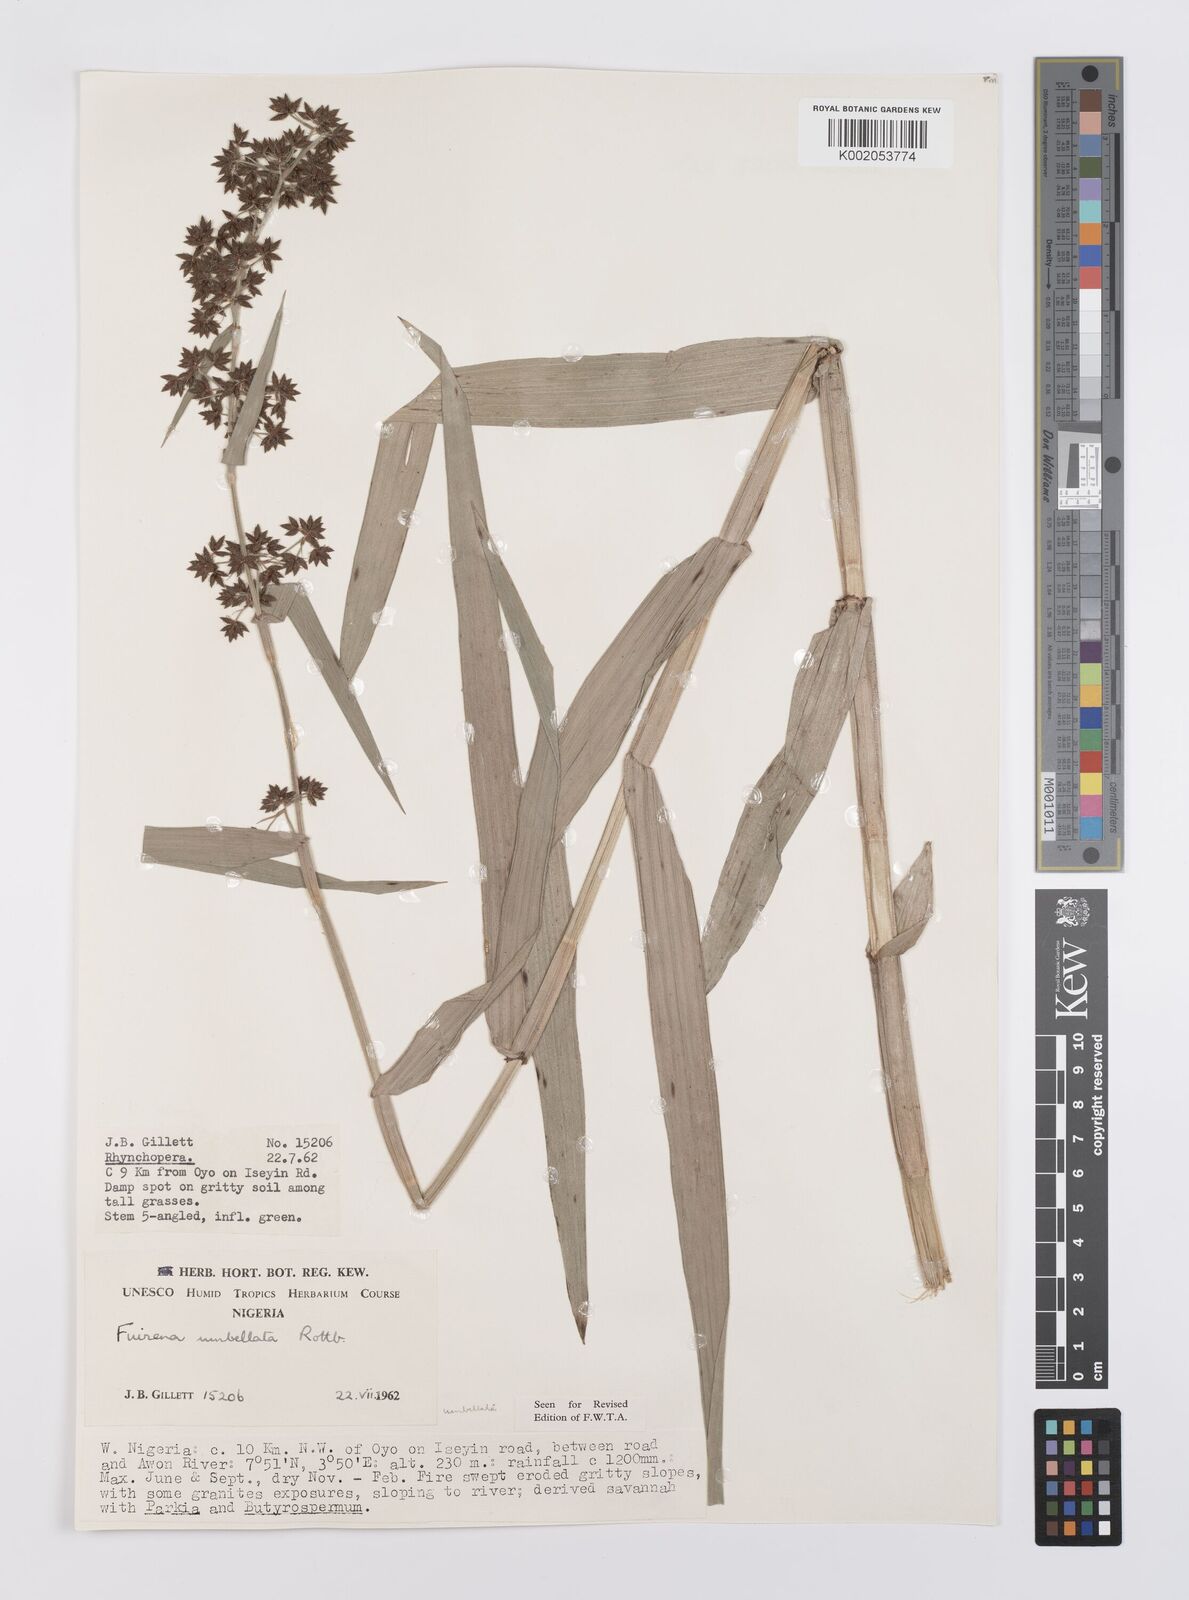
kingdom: Plantae
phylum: Tracheophyta
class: Liliopsida
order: Poales
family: Cyperaceae
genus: Fuirena
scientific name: Fuirena umbellata
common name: Yefen
